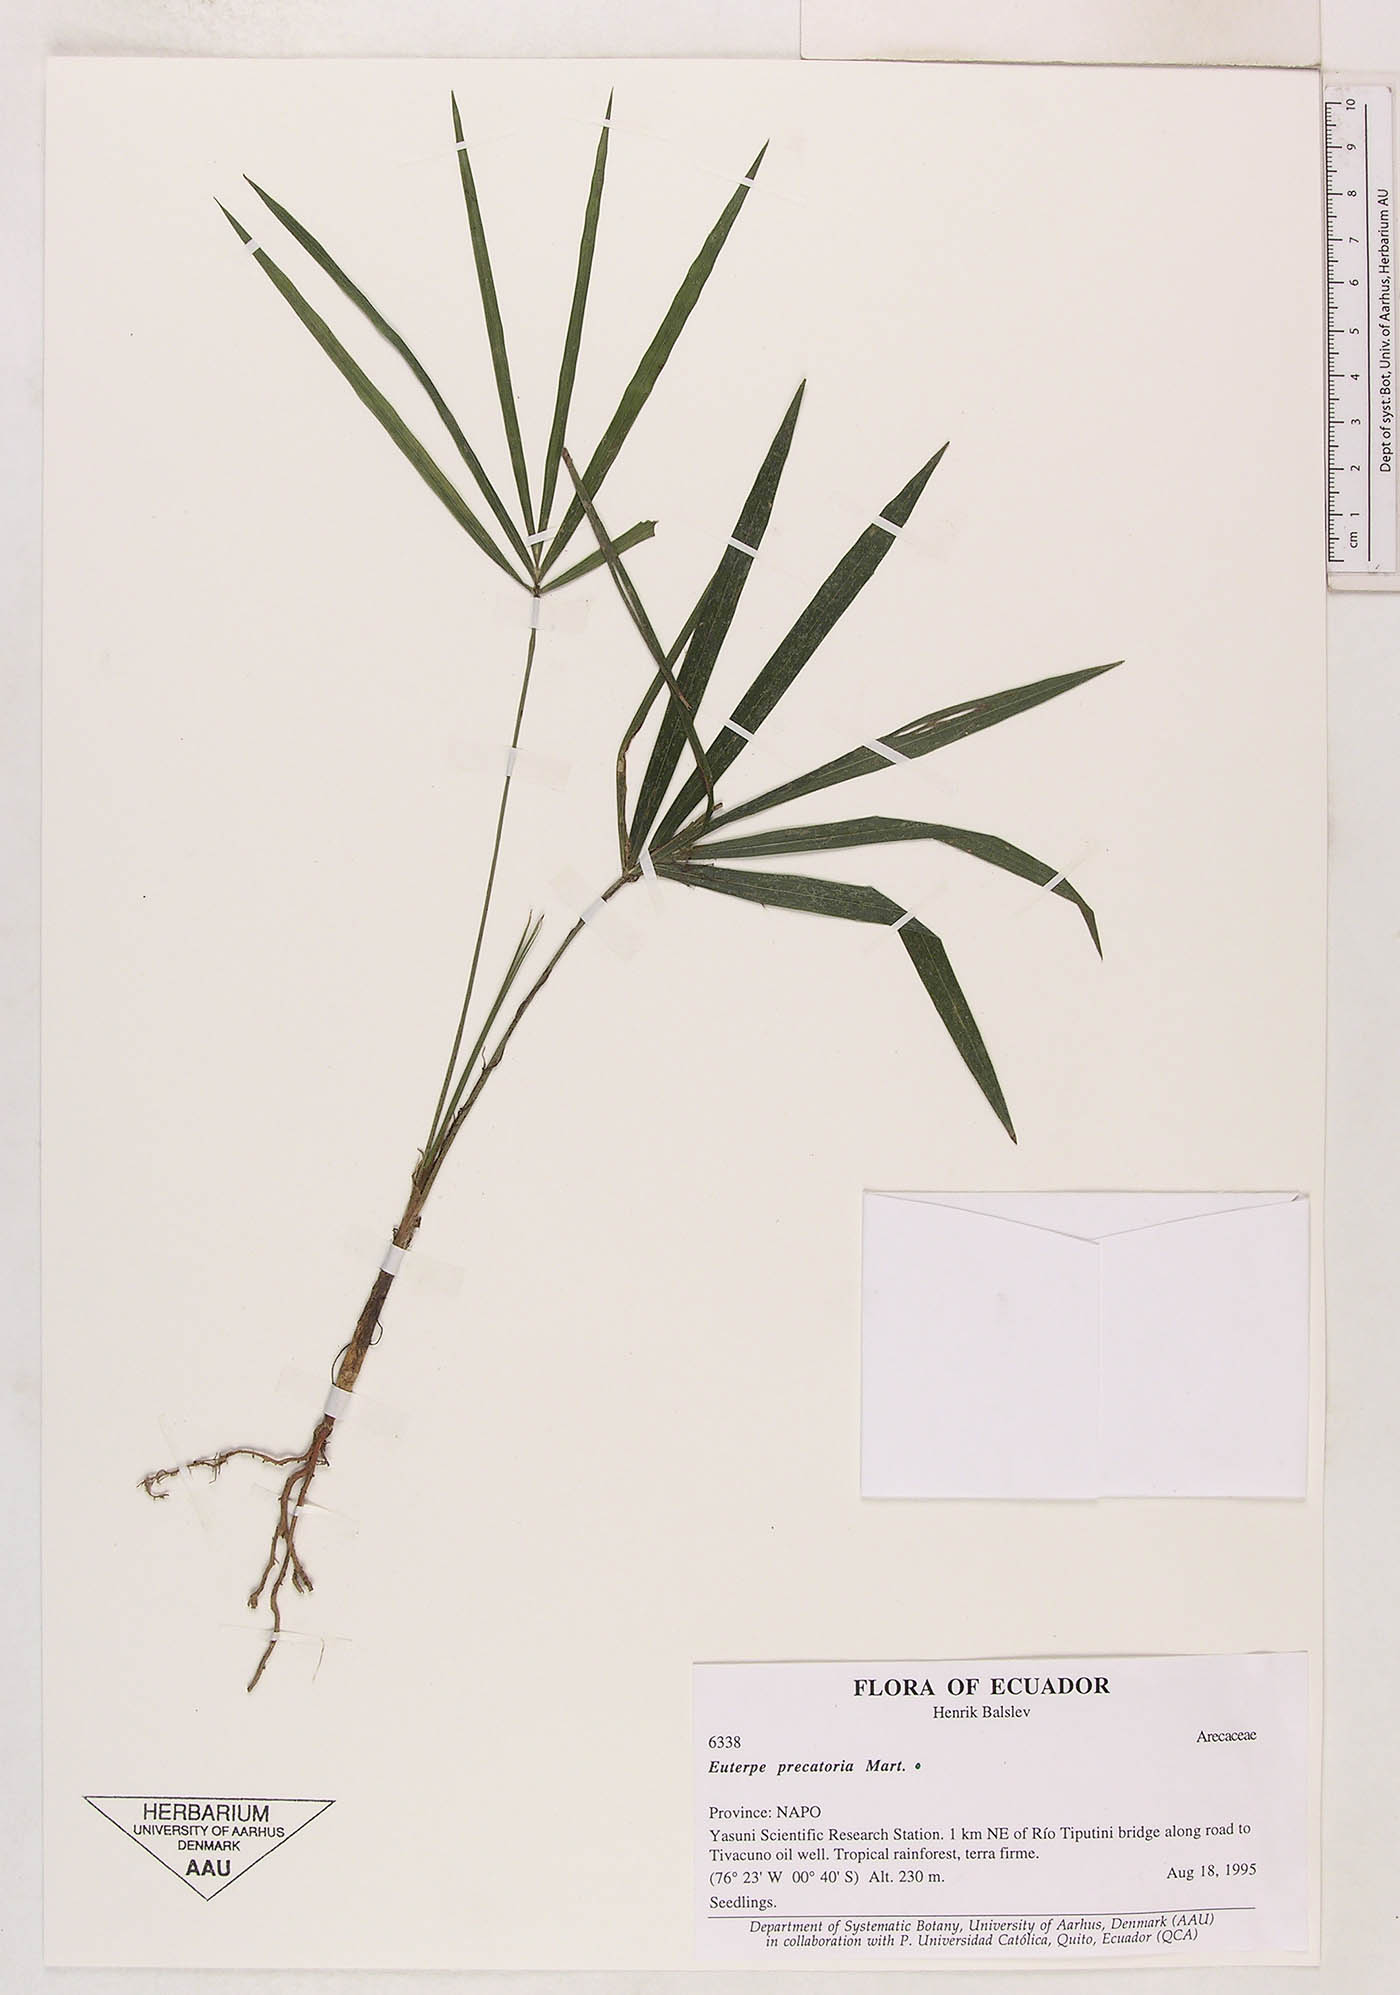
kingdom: Plantae
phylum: Tracheophyta
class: Liliopsida
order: Arecales
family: Arecaceae
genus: Euterpe
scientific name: Euterpe precatoria
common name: Mountain-cabbage
